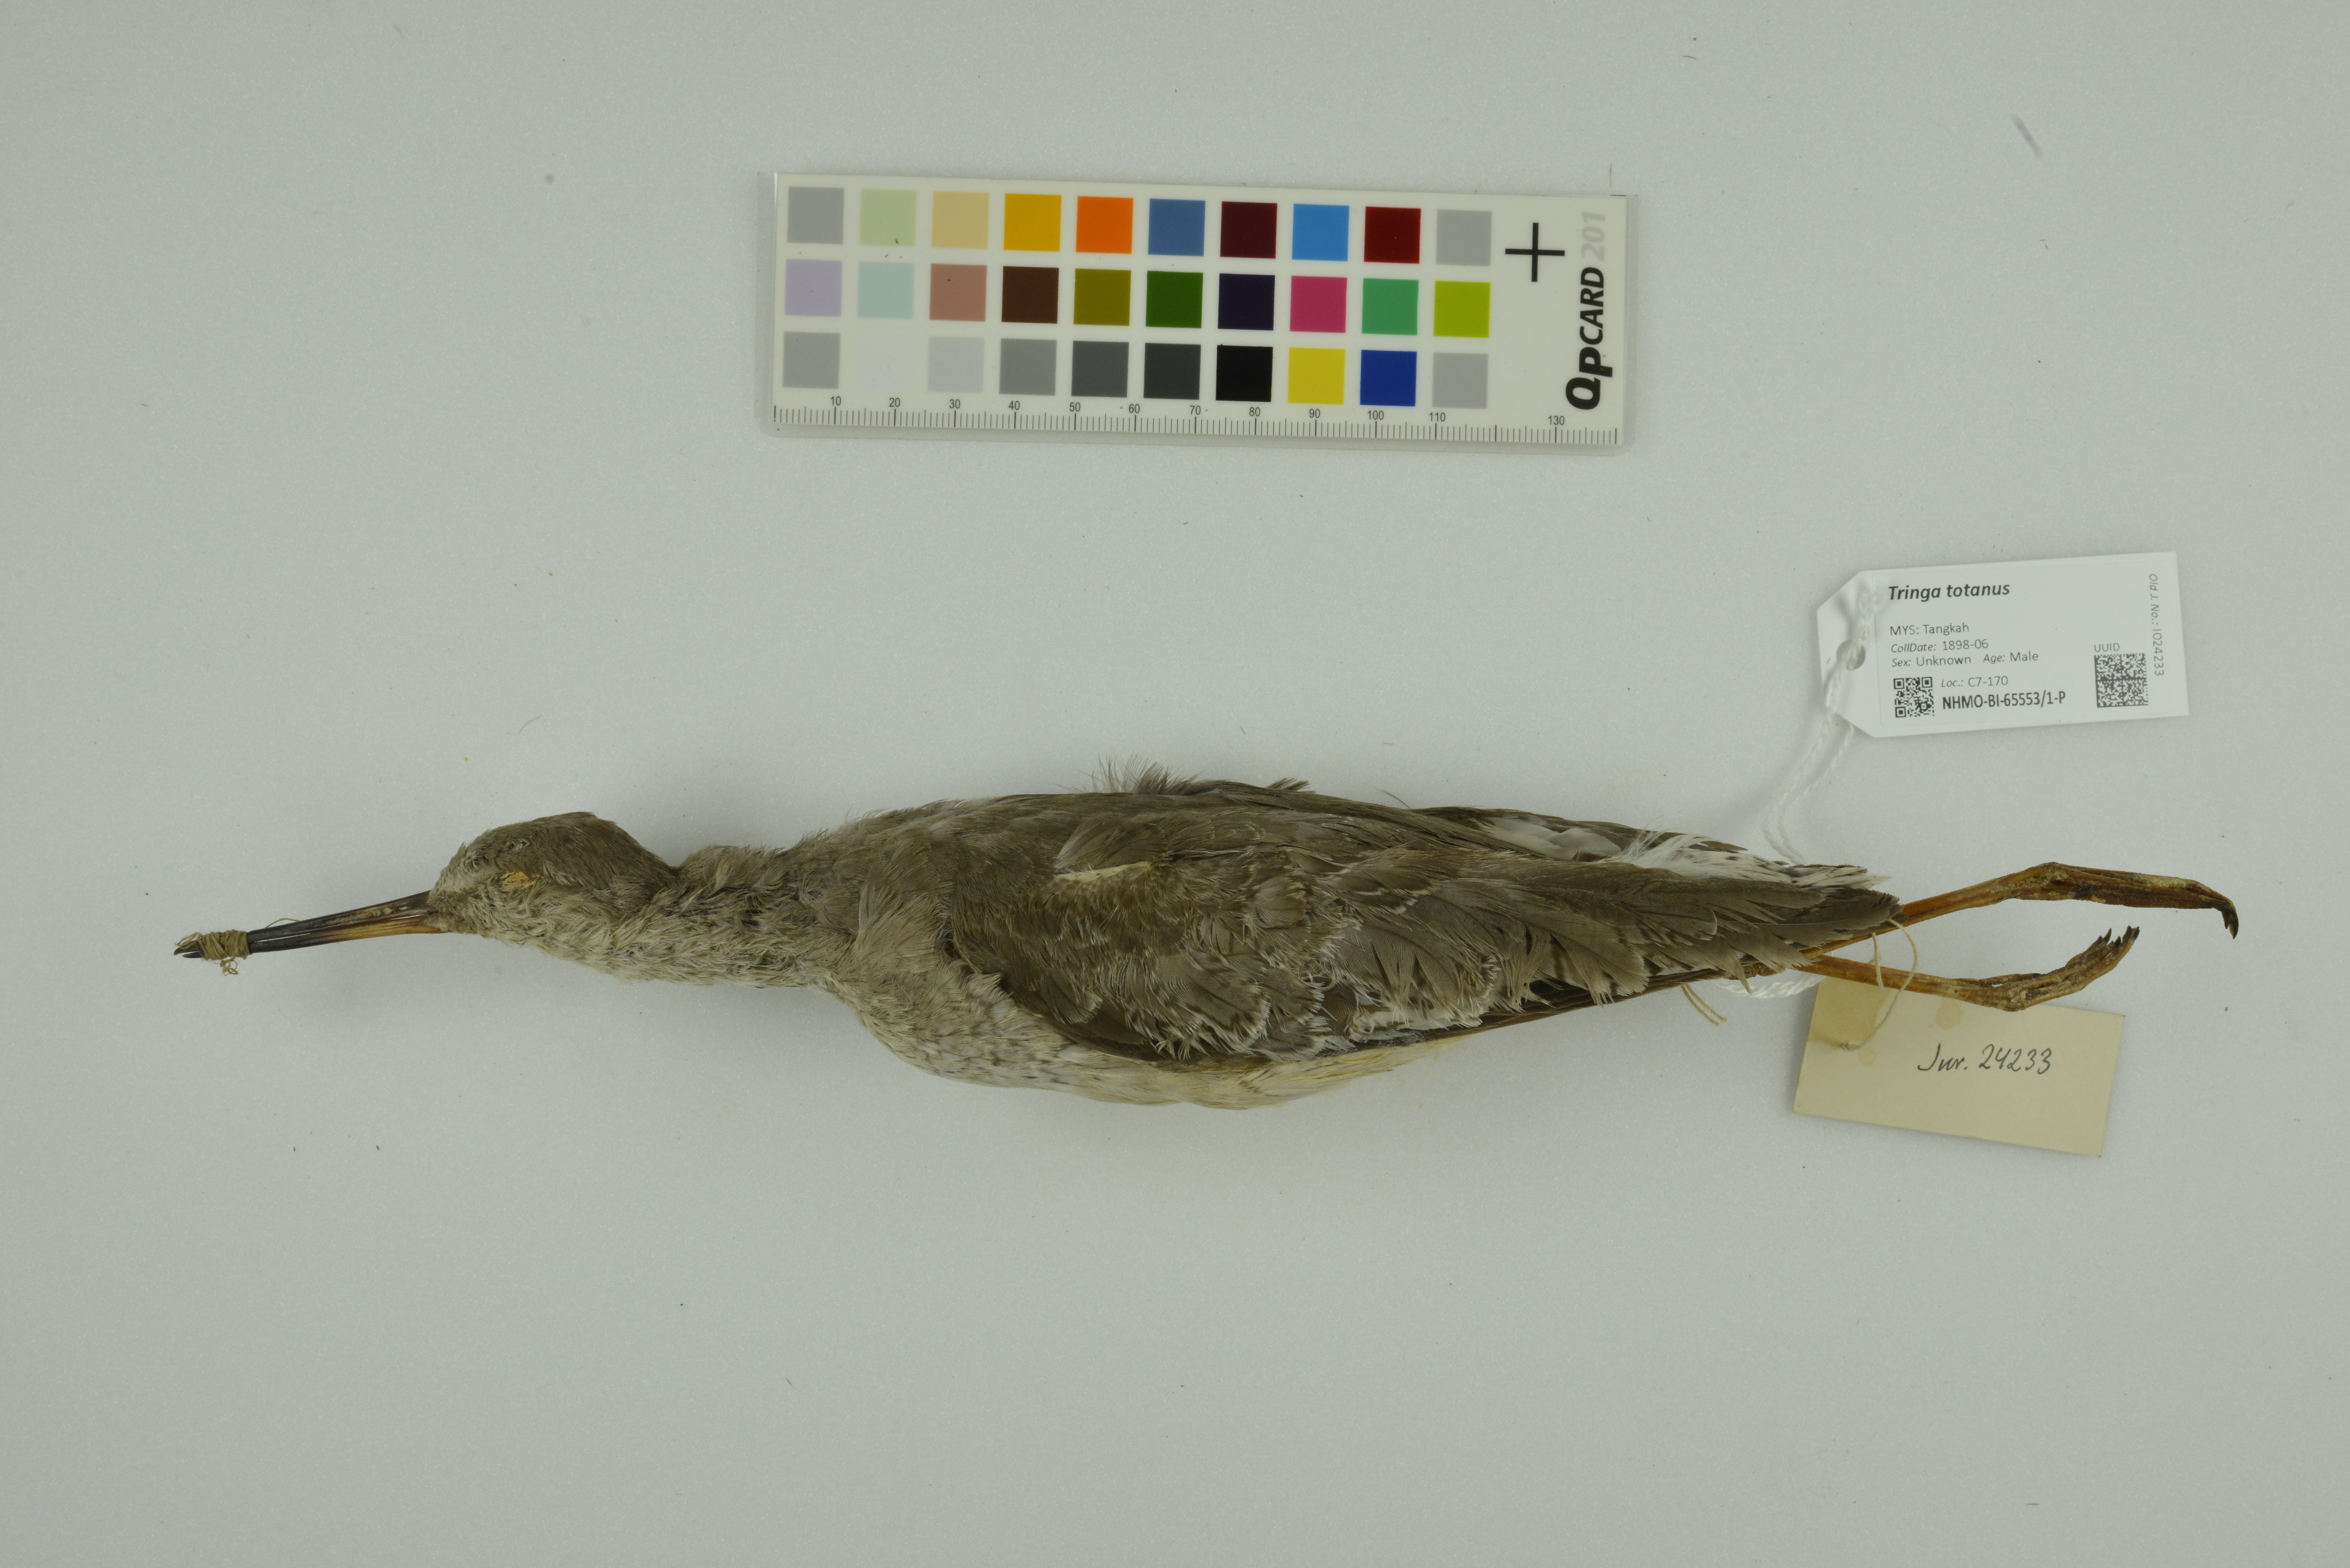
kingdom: Animalia
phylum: Chordata
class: Aves
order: Charadriiformes
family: Scolopacidae
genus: Tringa
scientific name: Tringa totanus
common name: Common redshank
